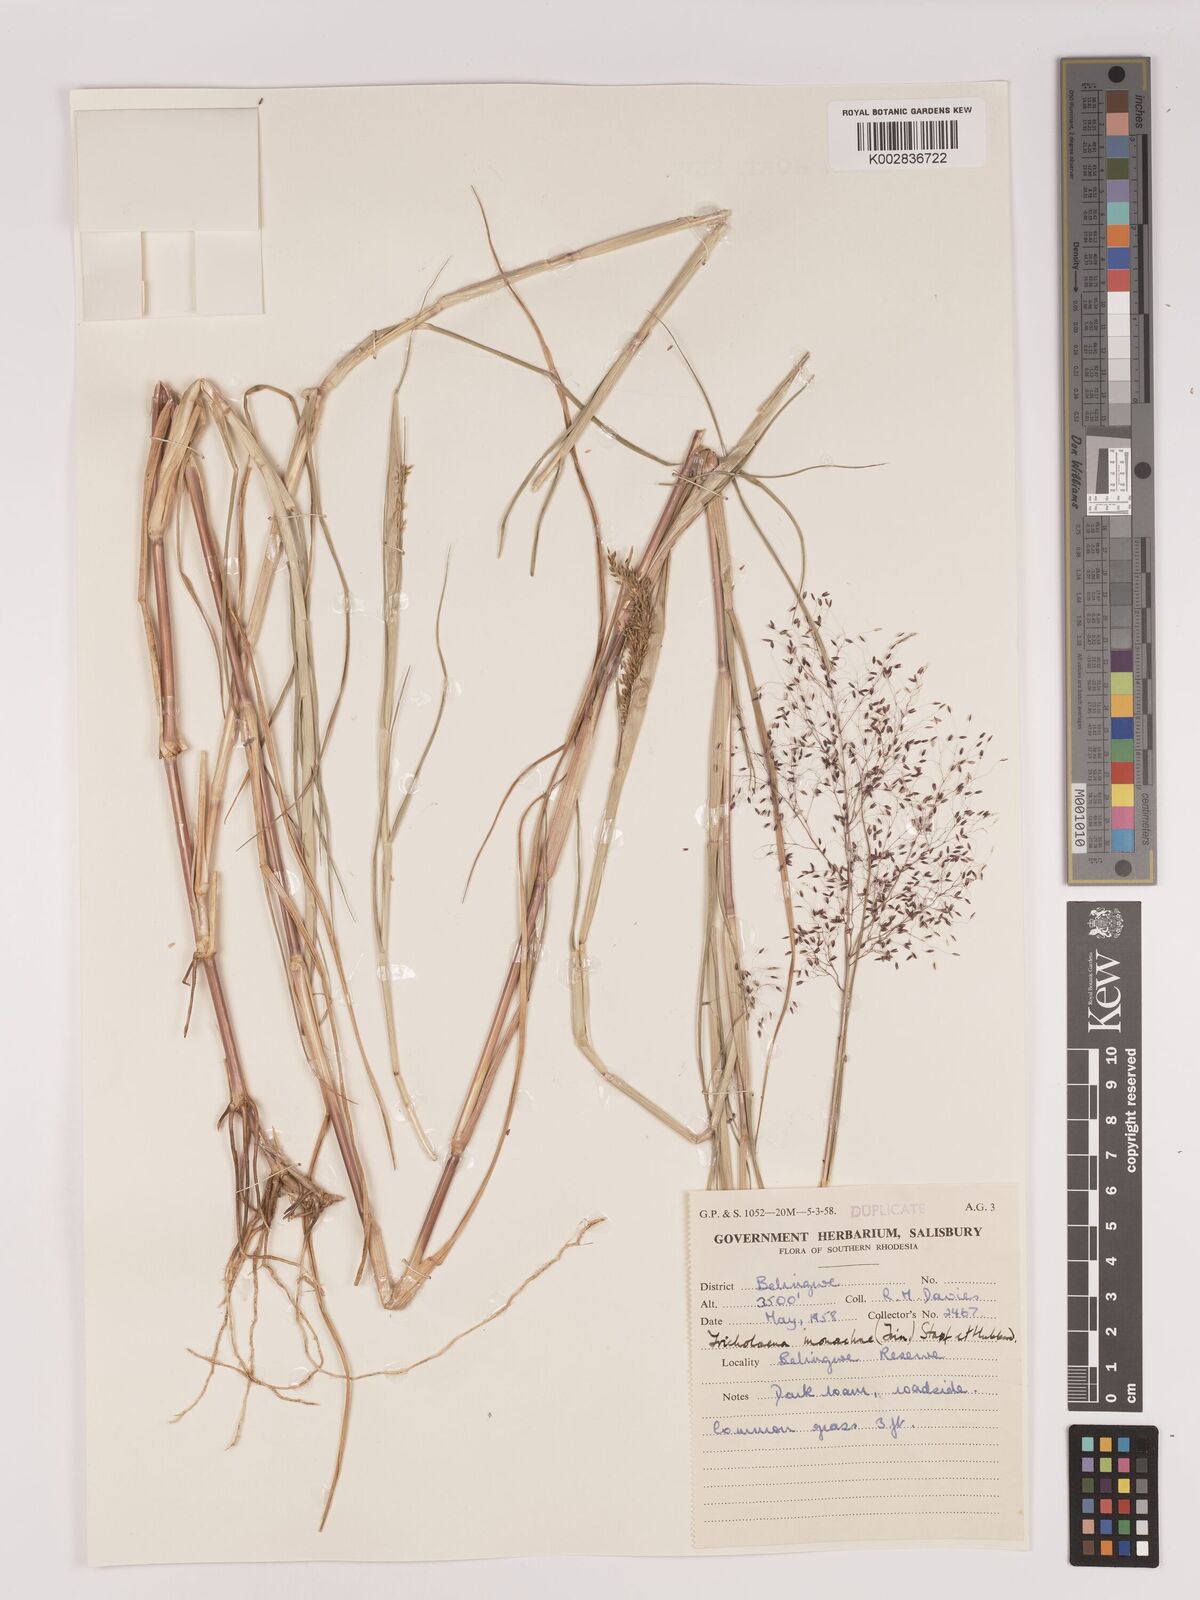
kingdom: Plantae
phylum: Tracheophyta
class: Liliopsida
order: Poales
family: Poaceae
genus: Tricholaena
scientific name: Tricholaena monachne
